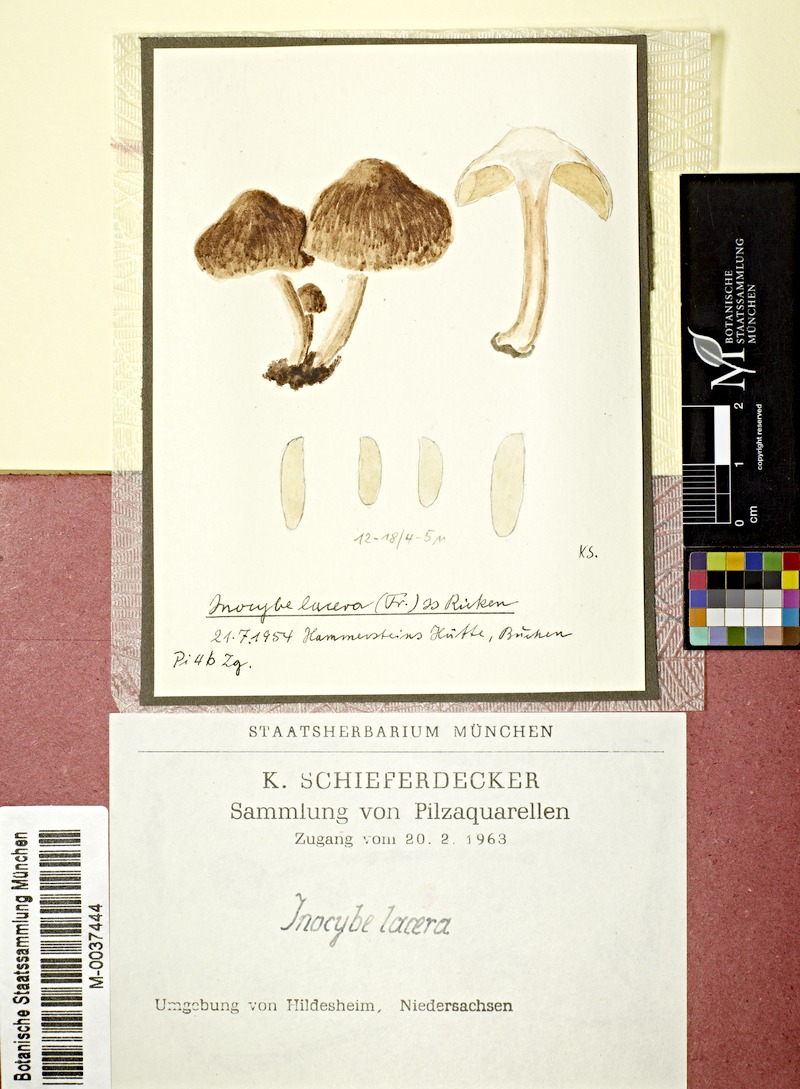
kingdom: Fungi
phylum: Basidiomycota
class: Agaricomycetes
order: Agaricales
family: Inocybaceae
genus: Inocybe
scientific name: Inocybe lacera
